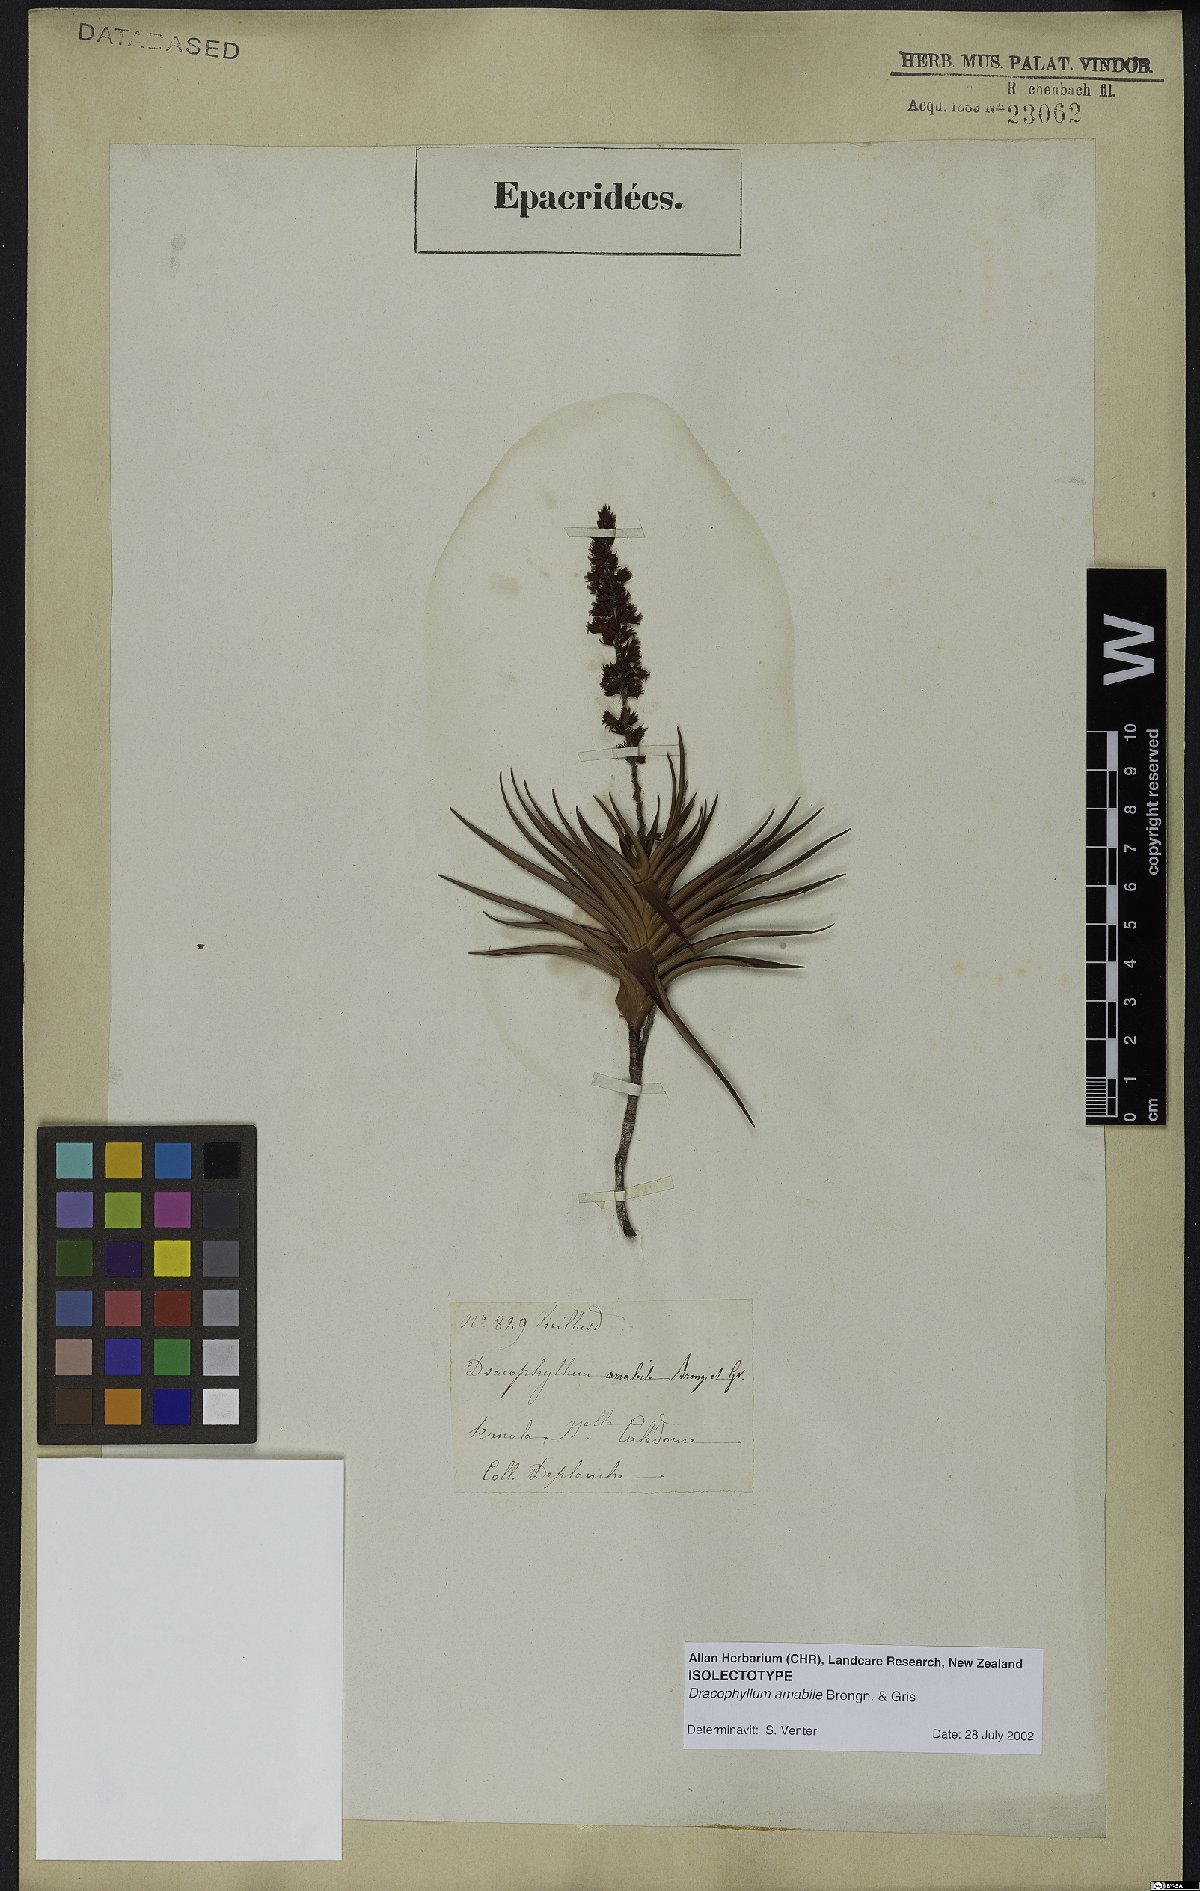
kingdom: Plantae
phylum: Tracheophyta
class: Magnoliopsida
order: Ericales
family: Ericaceae
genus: Dracophyllum
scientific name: Dracophyllum ramosum
